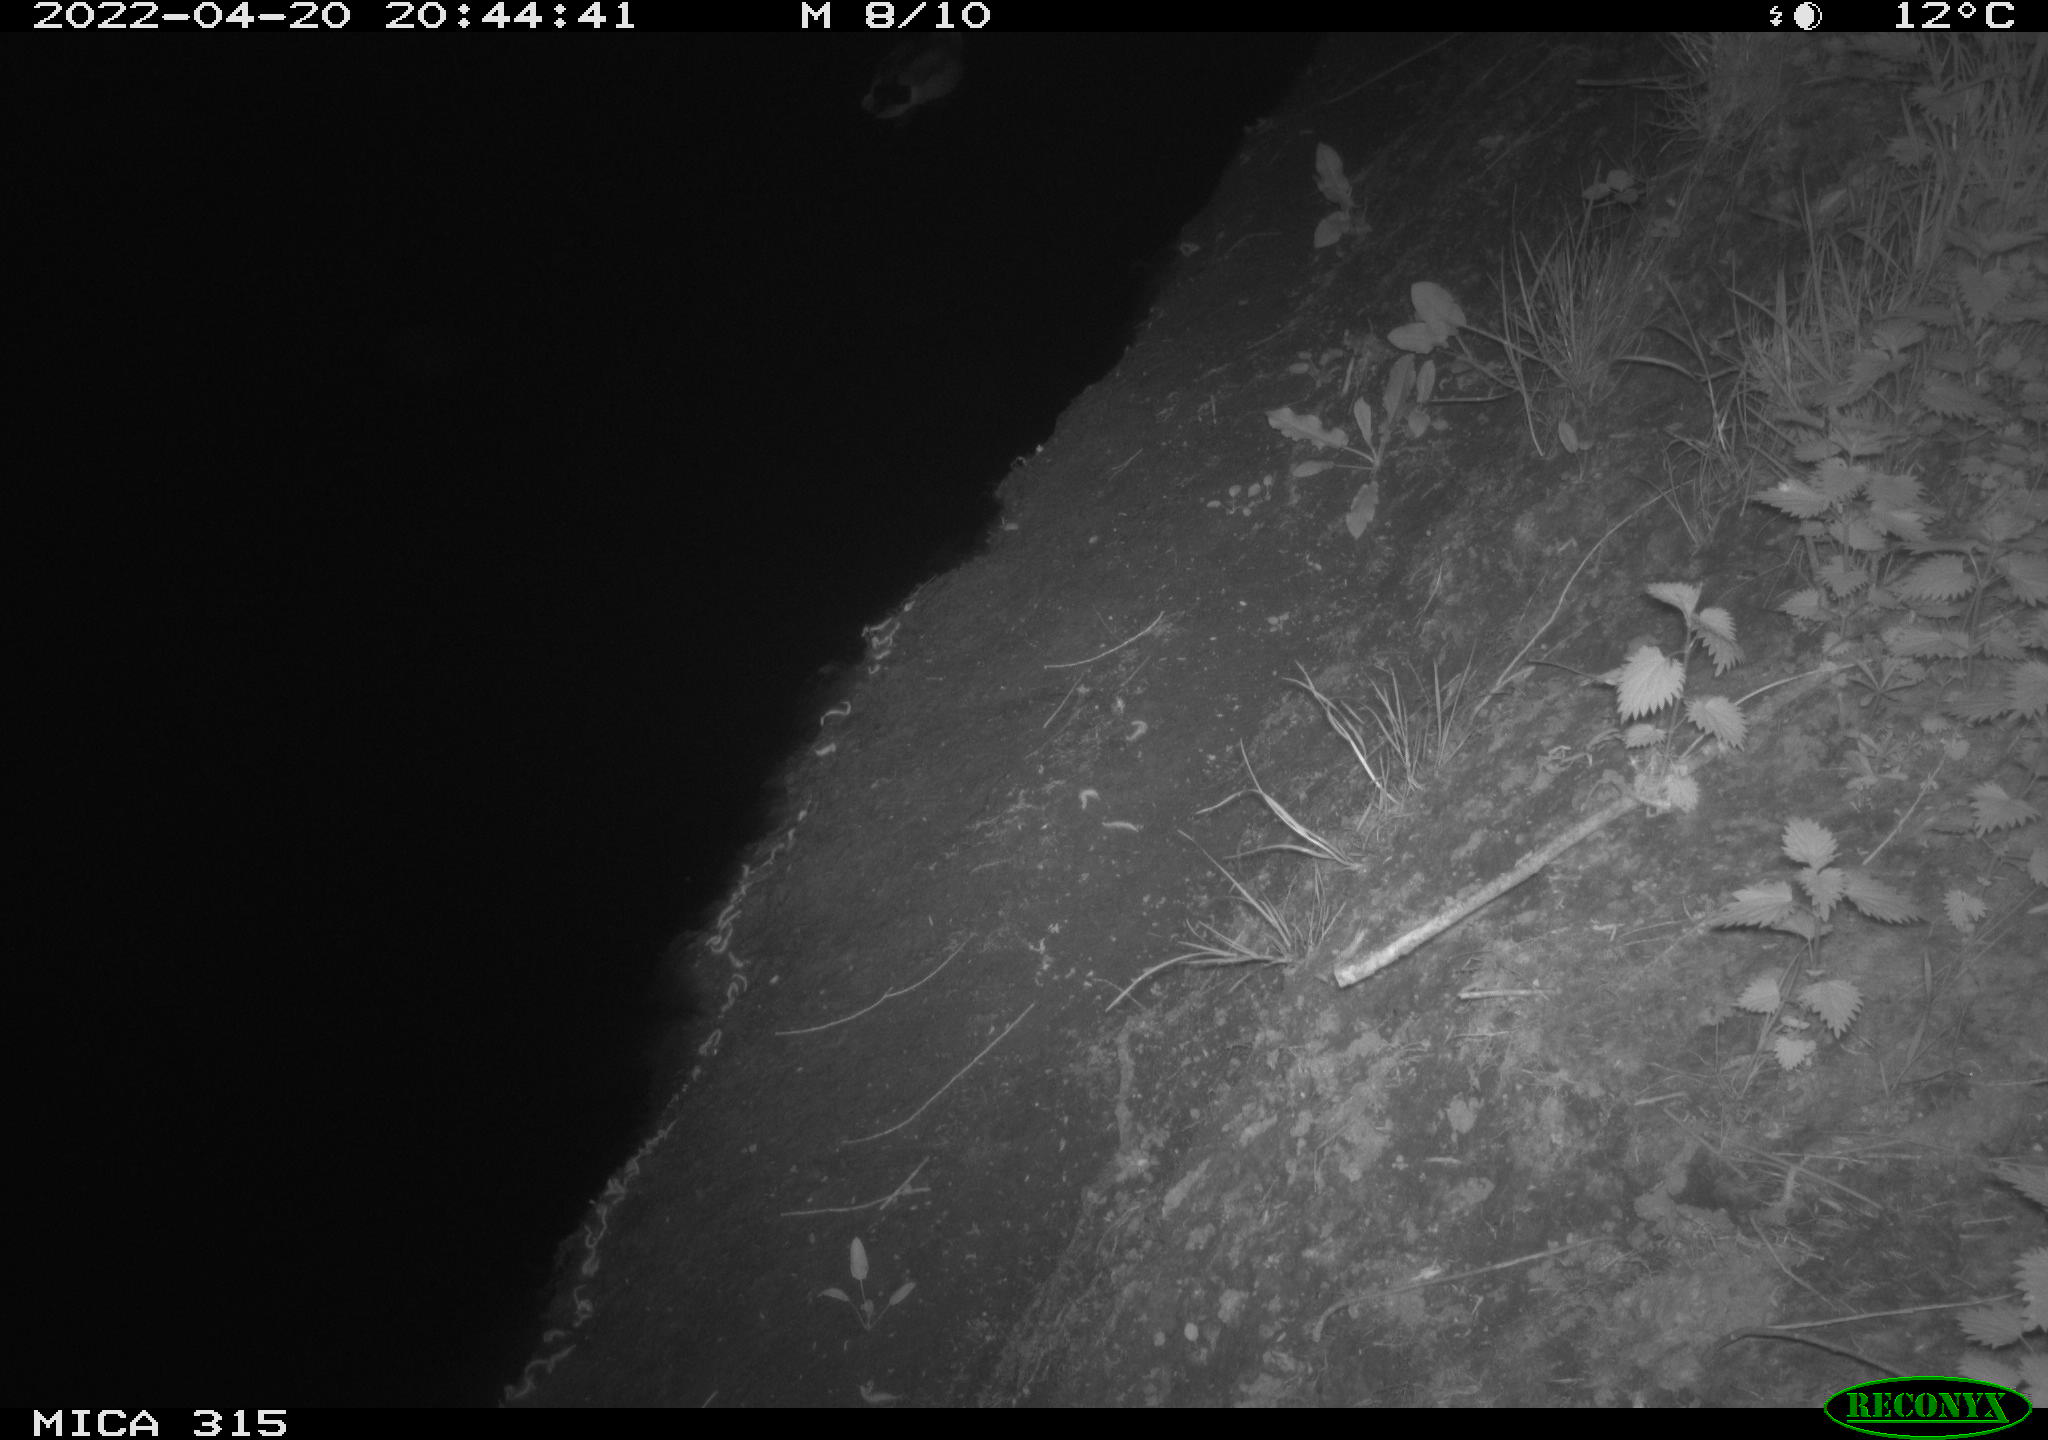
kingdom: Animalia
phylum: Chordata
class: Aves
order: Anseriformes
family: Anatidae
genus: Anas
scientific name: Anas platyrhynchos
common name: Mallard
